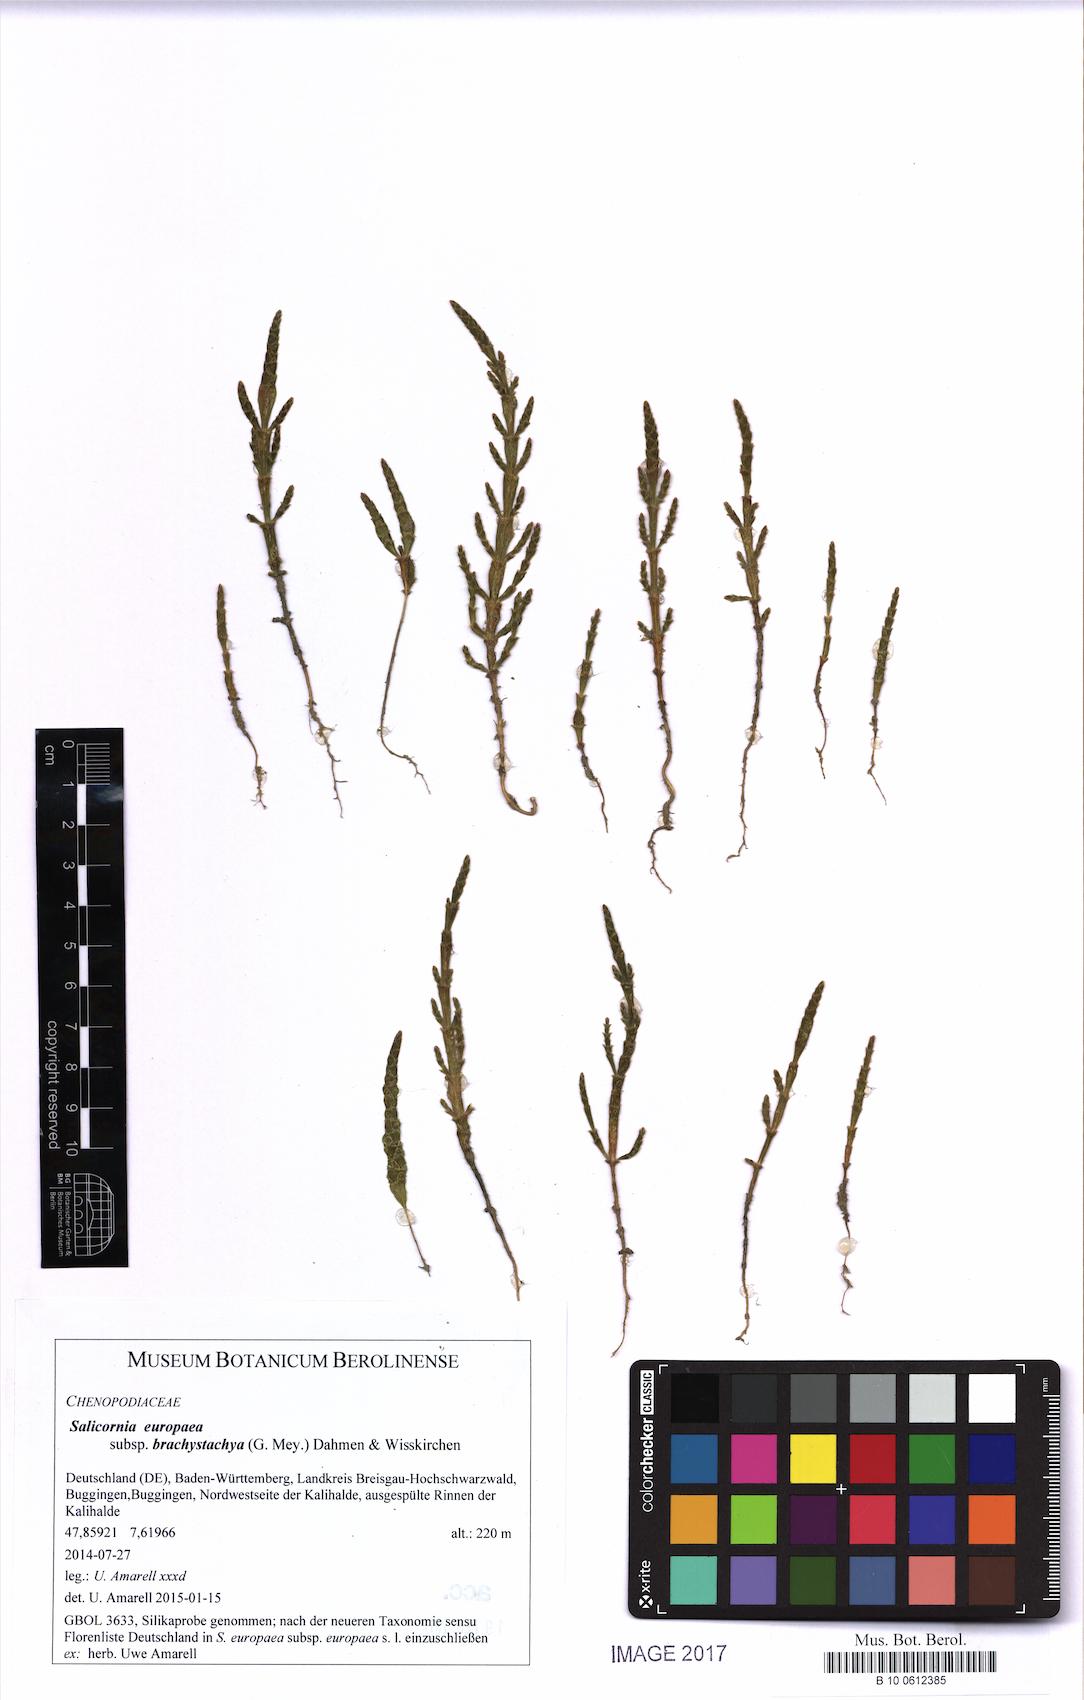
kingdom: Plantae
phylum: Tracheophyta
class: Magnoliopsida
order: Caryophyllales
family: Amaranthaceae
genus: Salicornia
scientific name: Salicornia europaea
